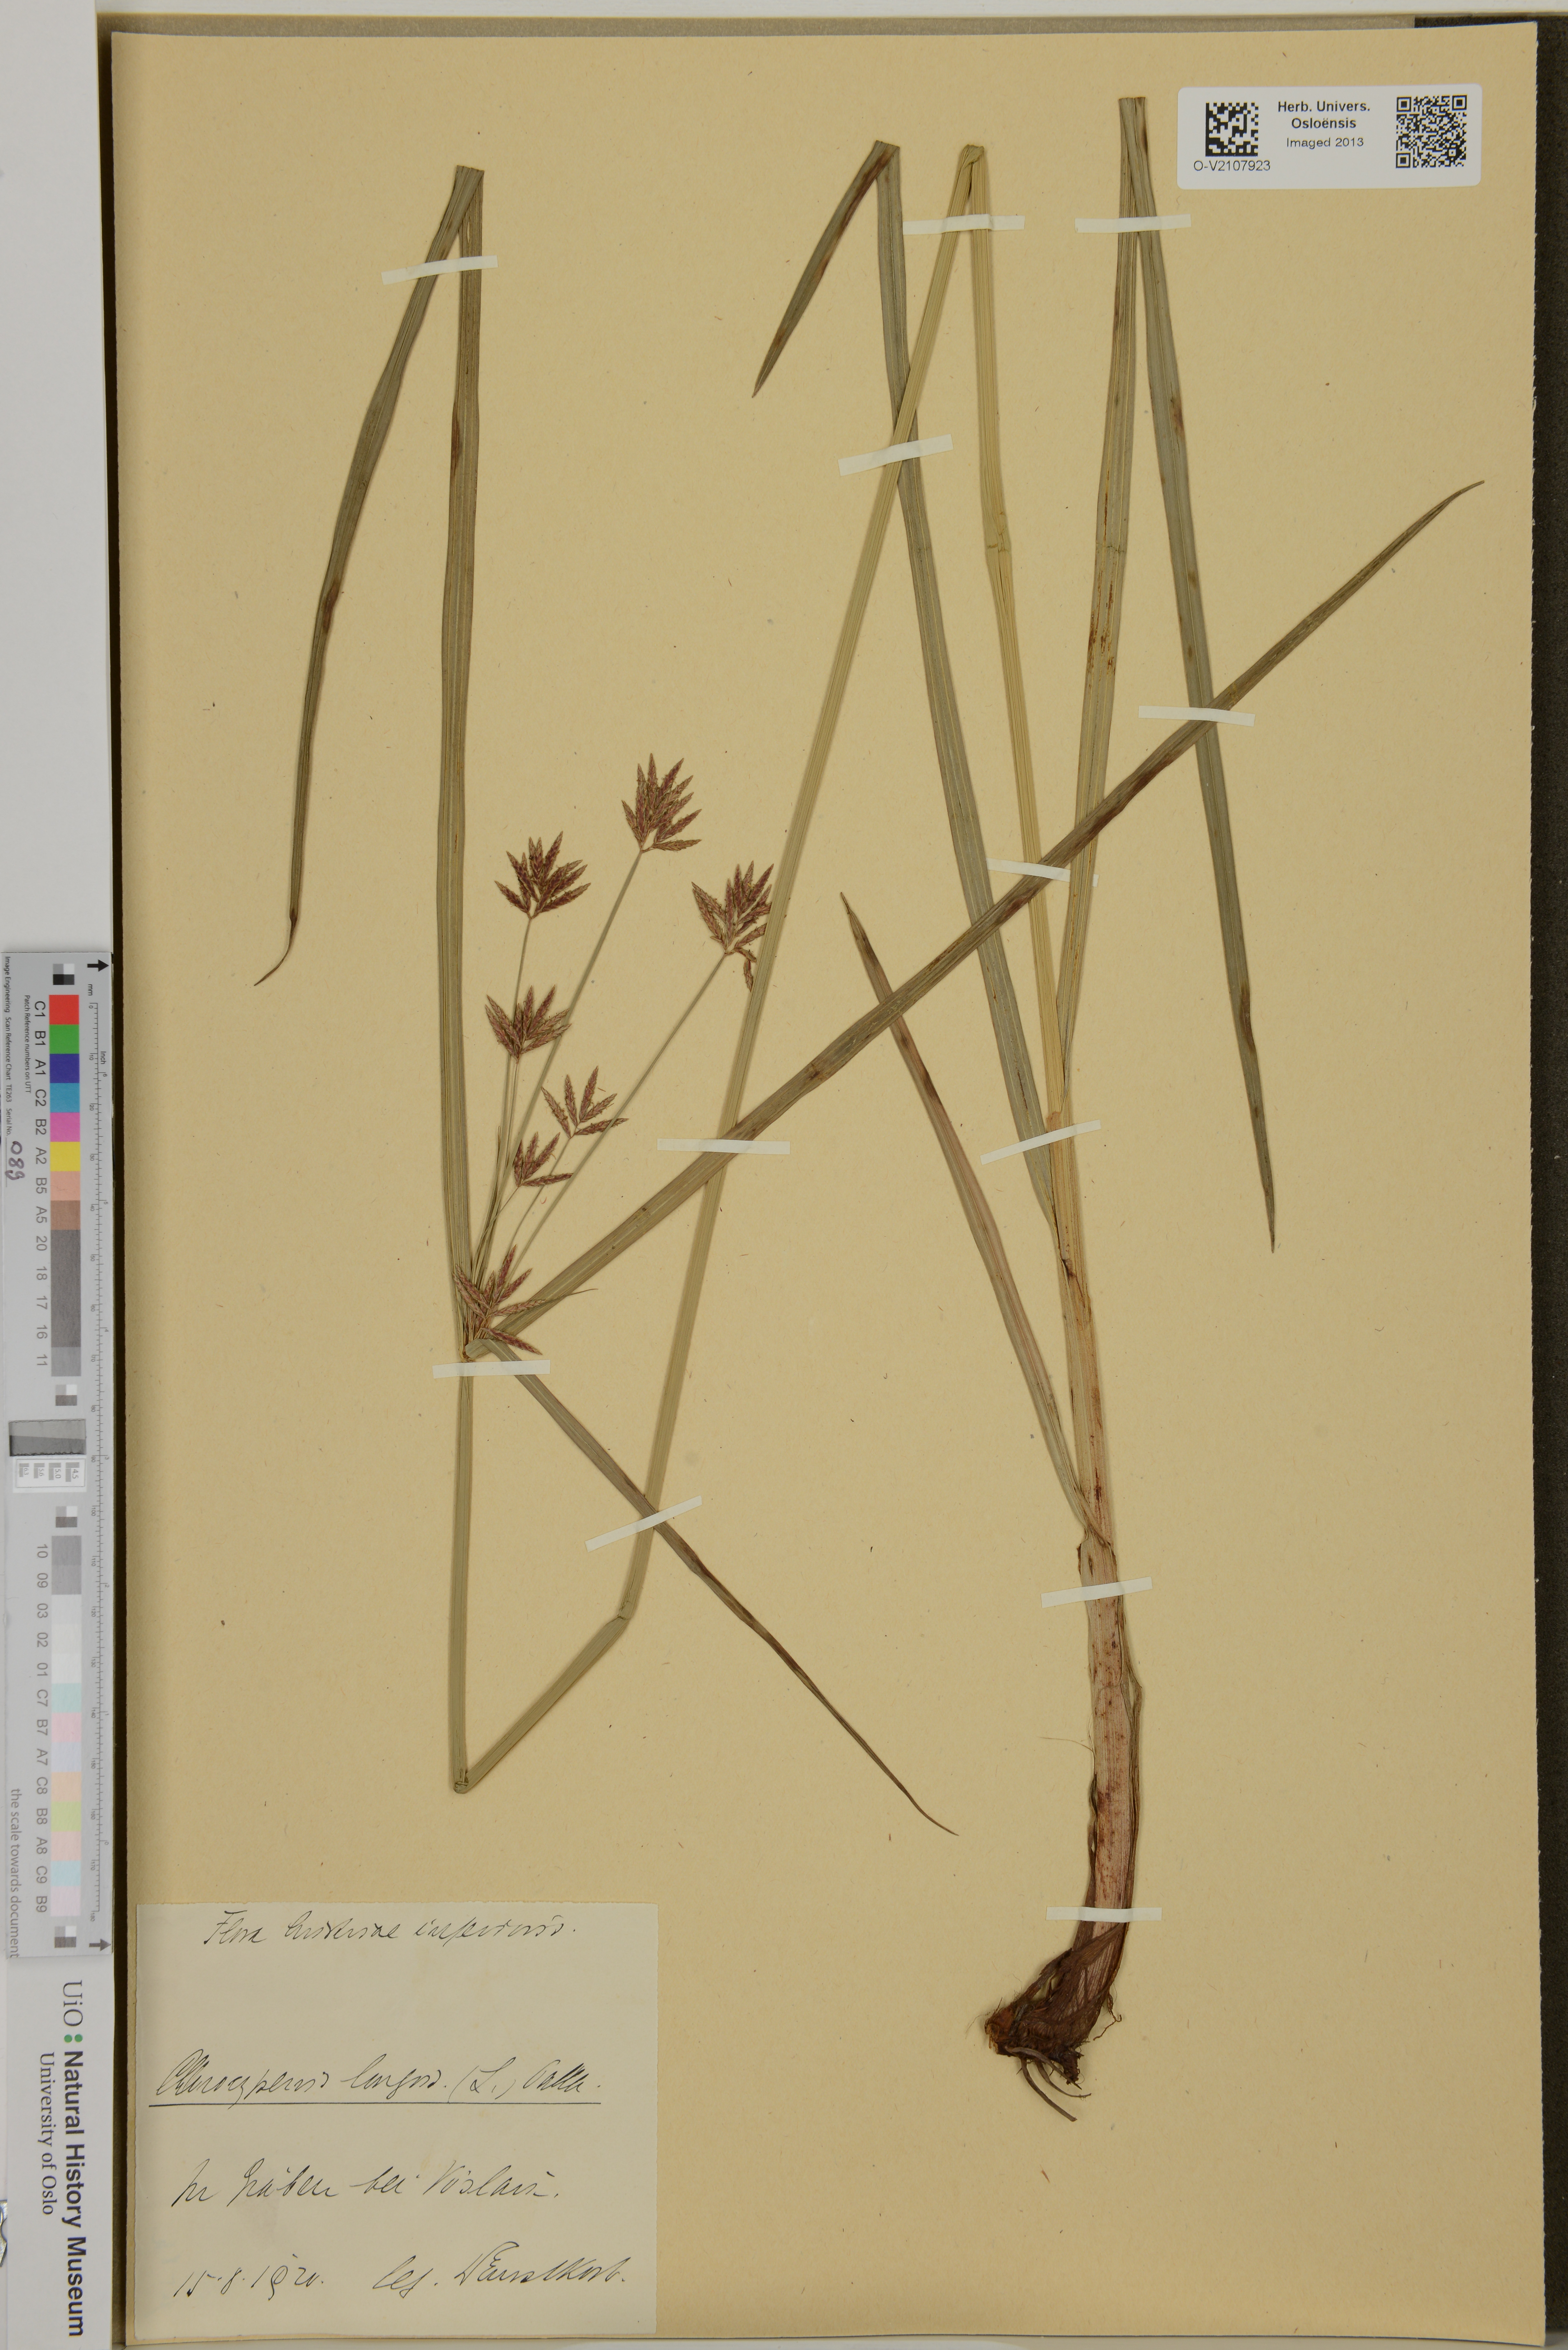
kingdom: Plantae
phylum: Tracheophyta
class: Liliopsida
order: Poales
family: Cyperaceae
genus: Cyperus
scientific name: Cyperus longus
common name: Galingale
